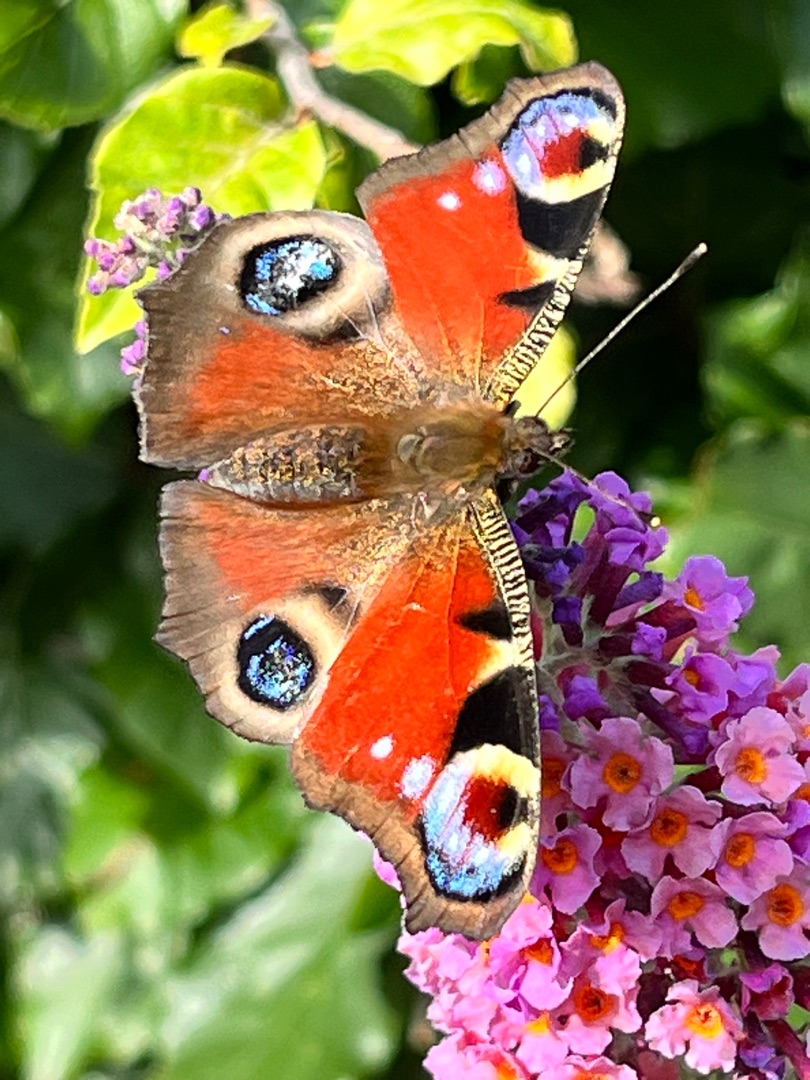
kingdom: Animalia
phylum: Arthropoda
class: Insecta
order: Lepidoptera
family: Nymphalidae
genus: Aglais
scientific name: Aglais io
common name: Dagpåfugleøje
